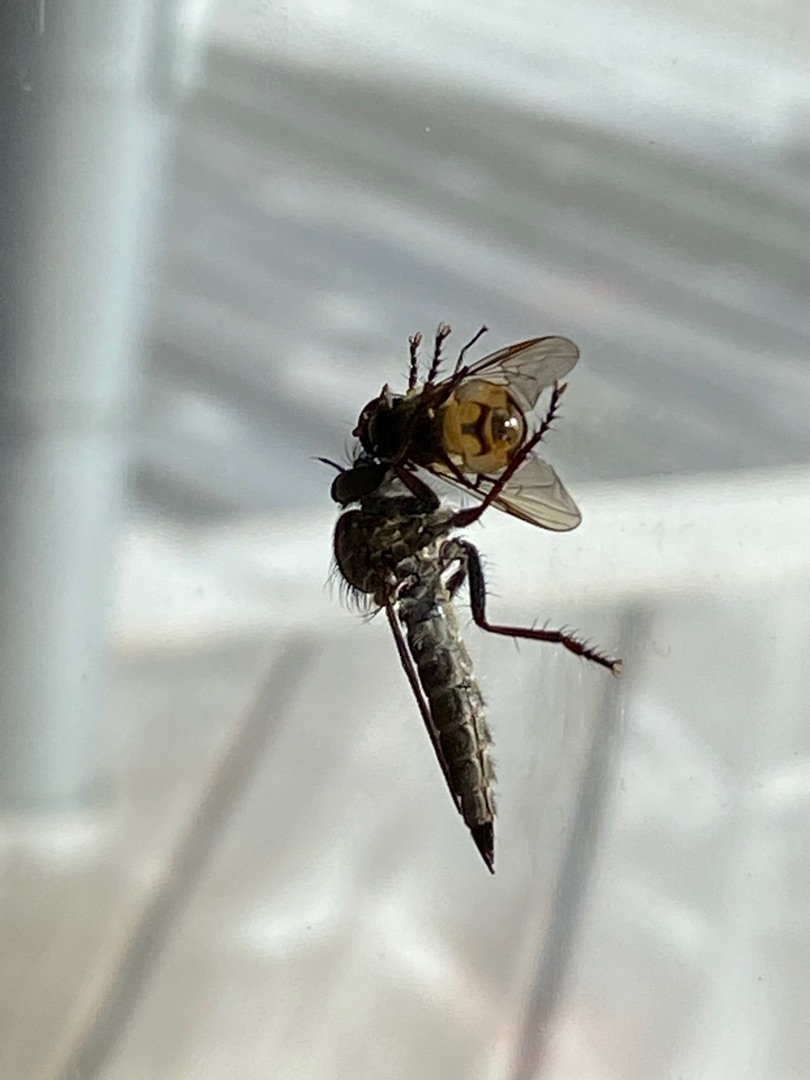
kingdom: Animalia
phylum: Arthropoda
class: Insecta
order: Diptera
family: Asilidae
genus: Machimus
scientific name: Machimus atricapillus
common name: Sort hårrovflue
